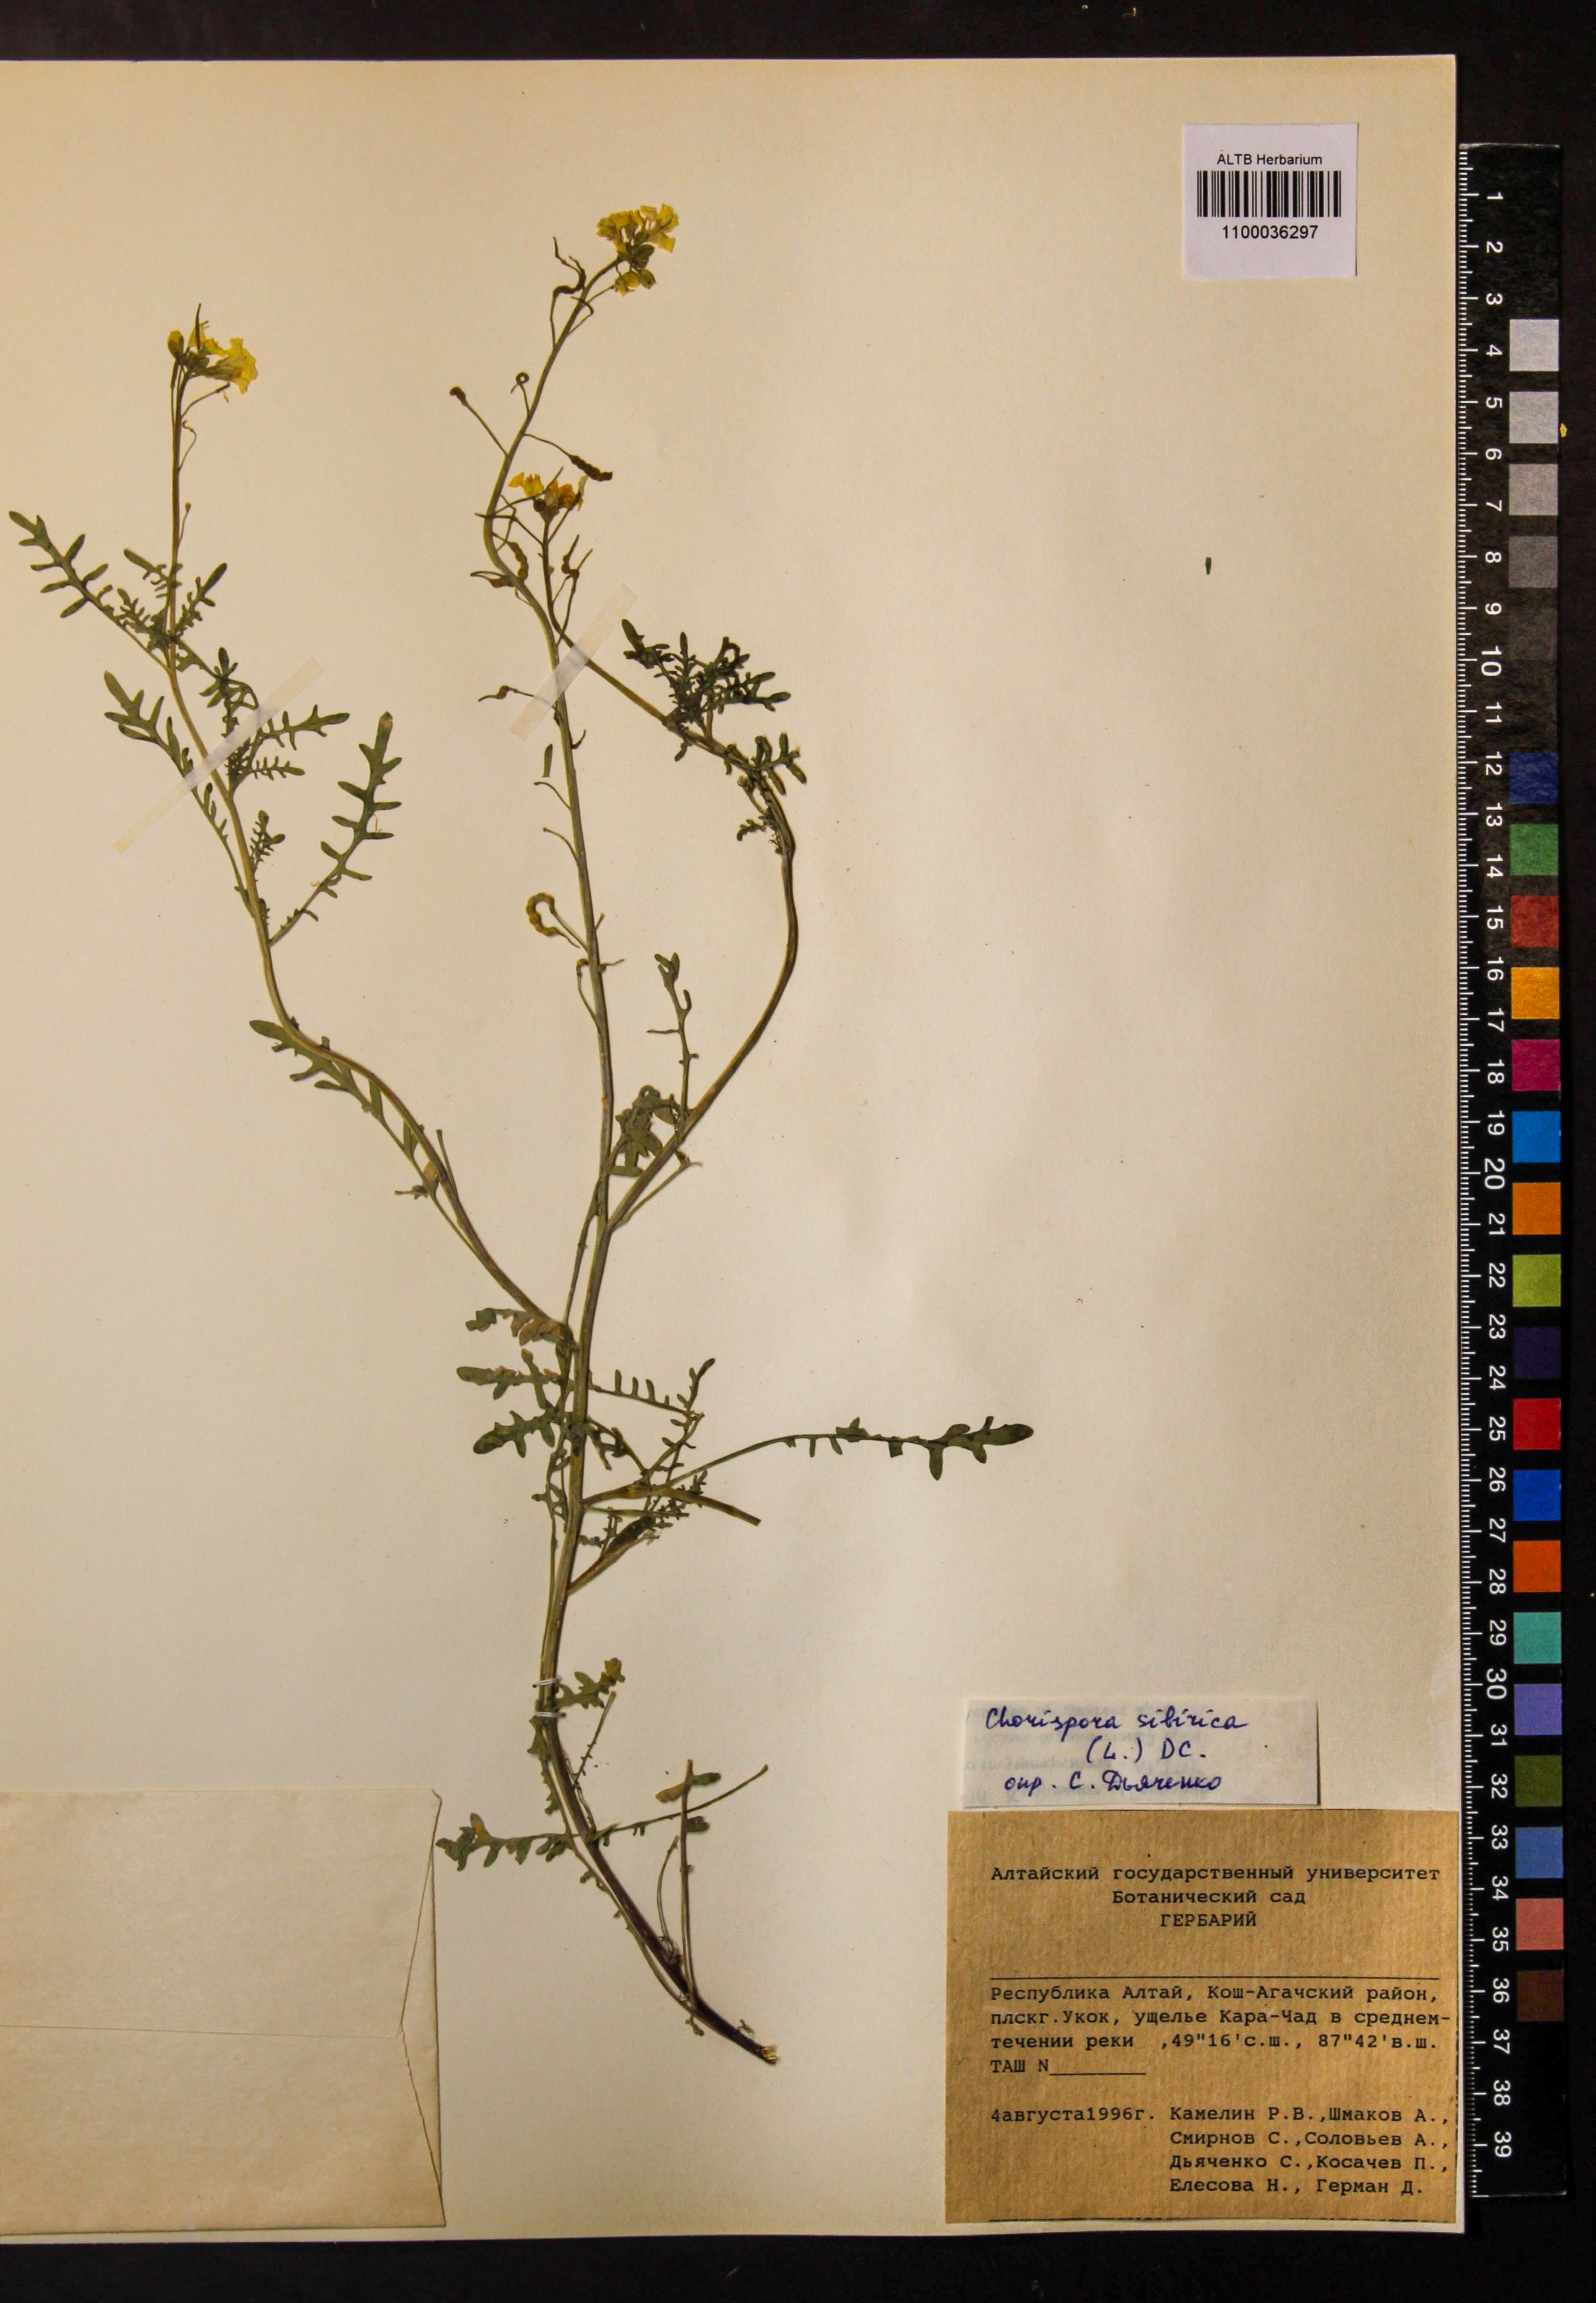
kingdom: Plantae
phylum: Tracheophyta
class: Magnoliopsida
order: Brassicales
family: Brassicaceae
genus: Chorispora
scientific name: Chorispora sibirica
